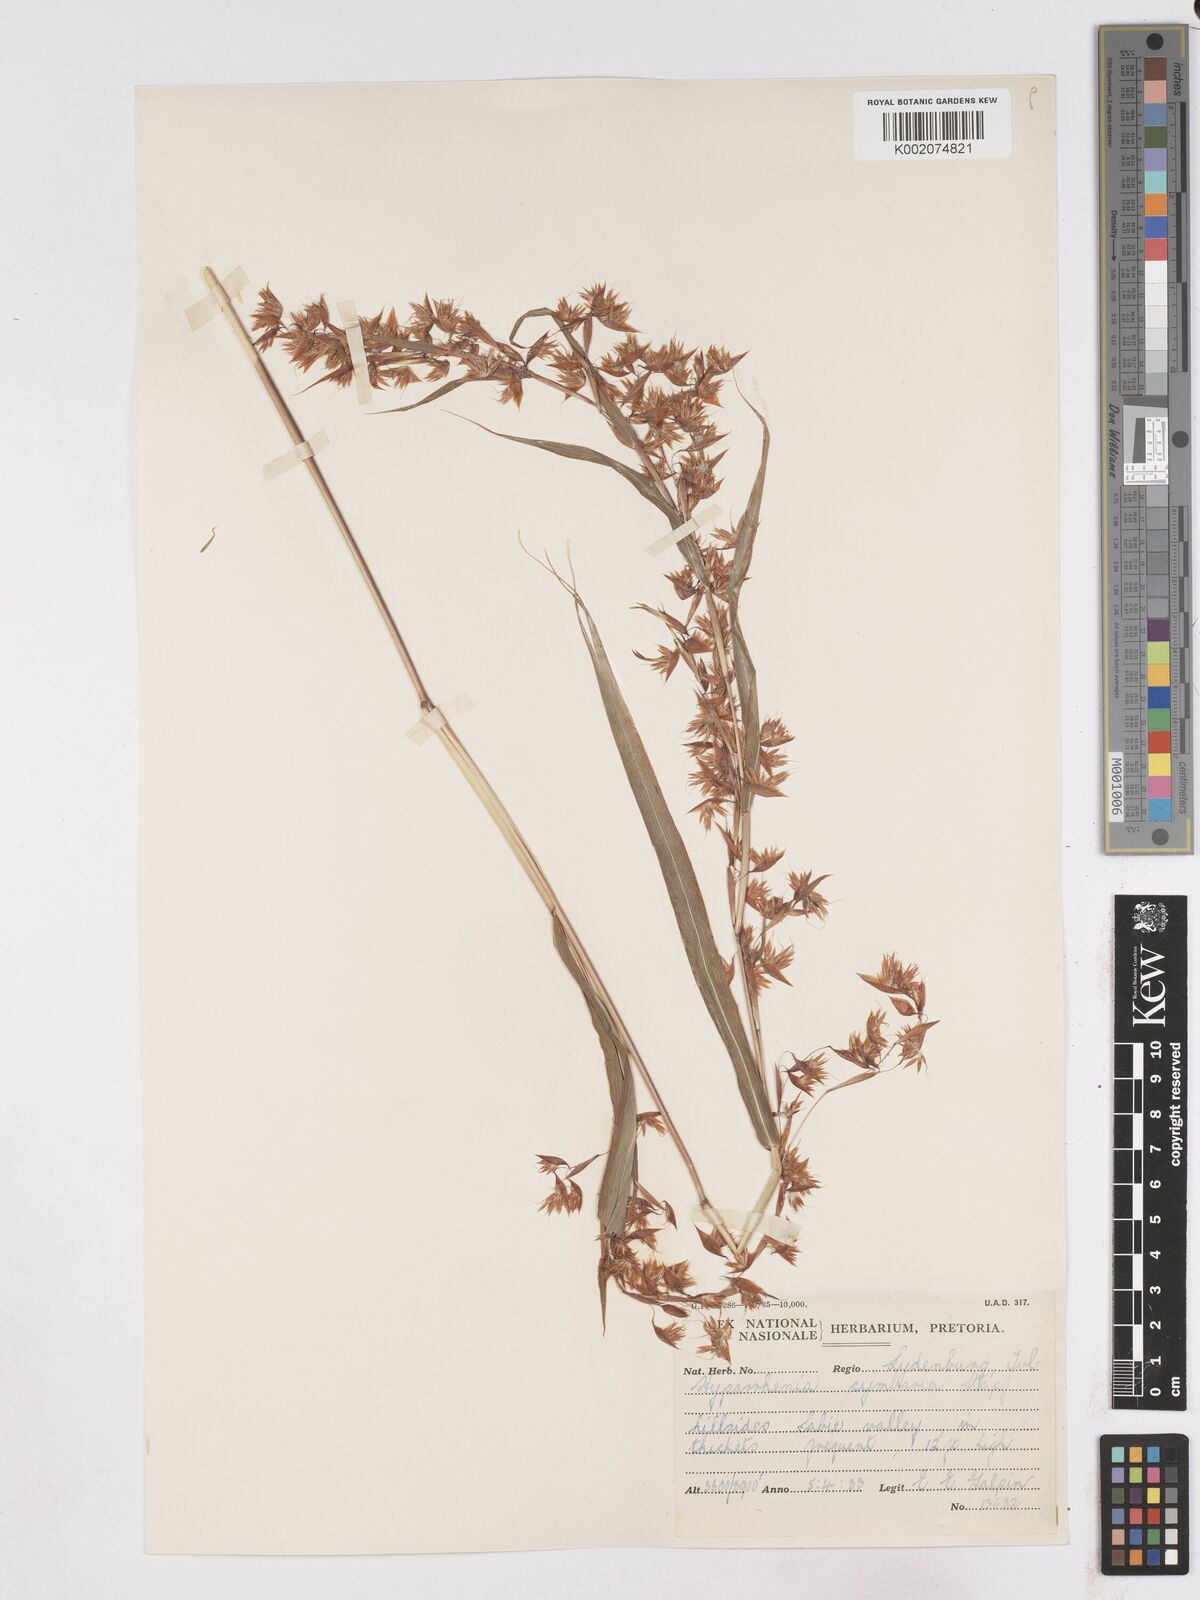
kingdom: Plantae
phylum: Tracheophyta
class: Liliopsida
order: Poales
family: Poaceae
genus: Hyparrhenia
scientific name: Hyparrhenia cymbaria
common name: Boat thatching grass
